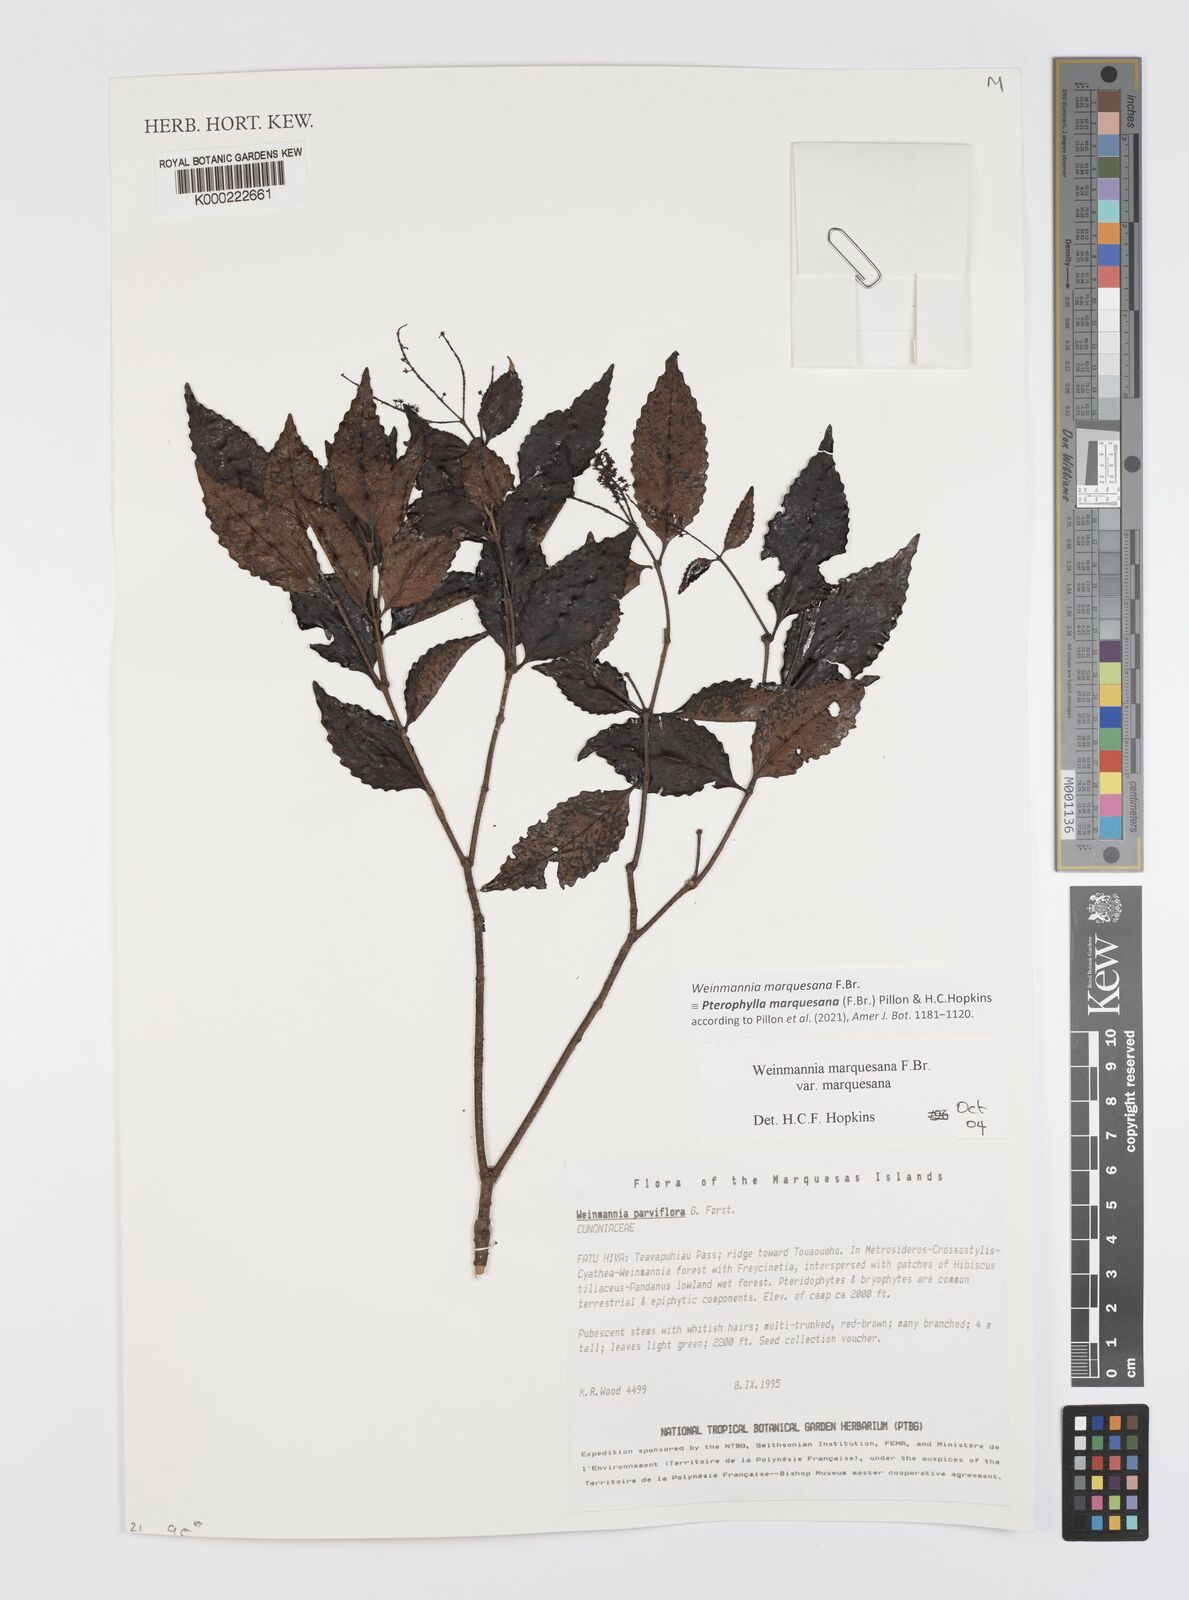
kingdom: Plantae
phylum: Tracheophyta
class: Magnoliopsida
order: Oxalidales
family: Cunoniaceae
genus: Pterophylla
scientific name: Pterophylla marquesana
